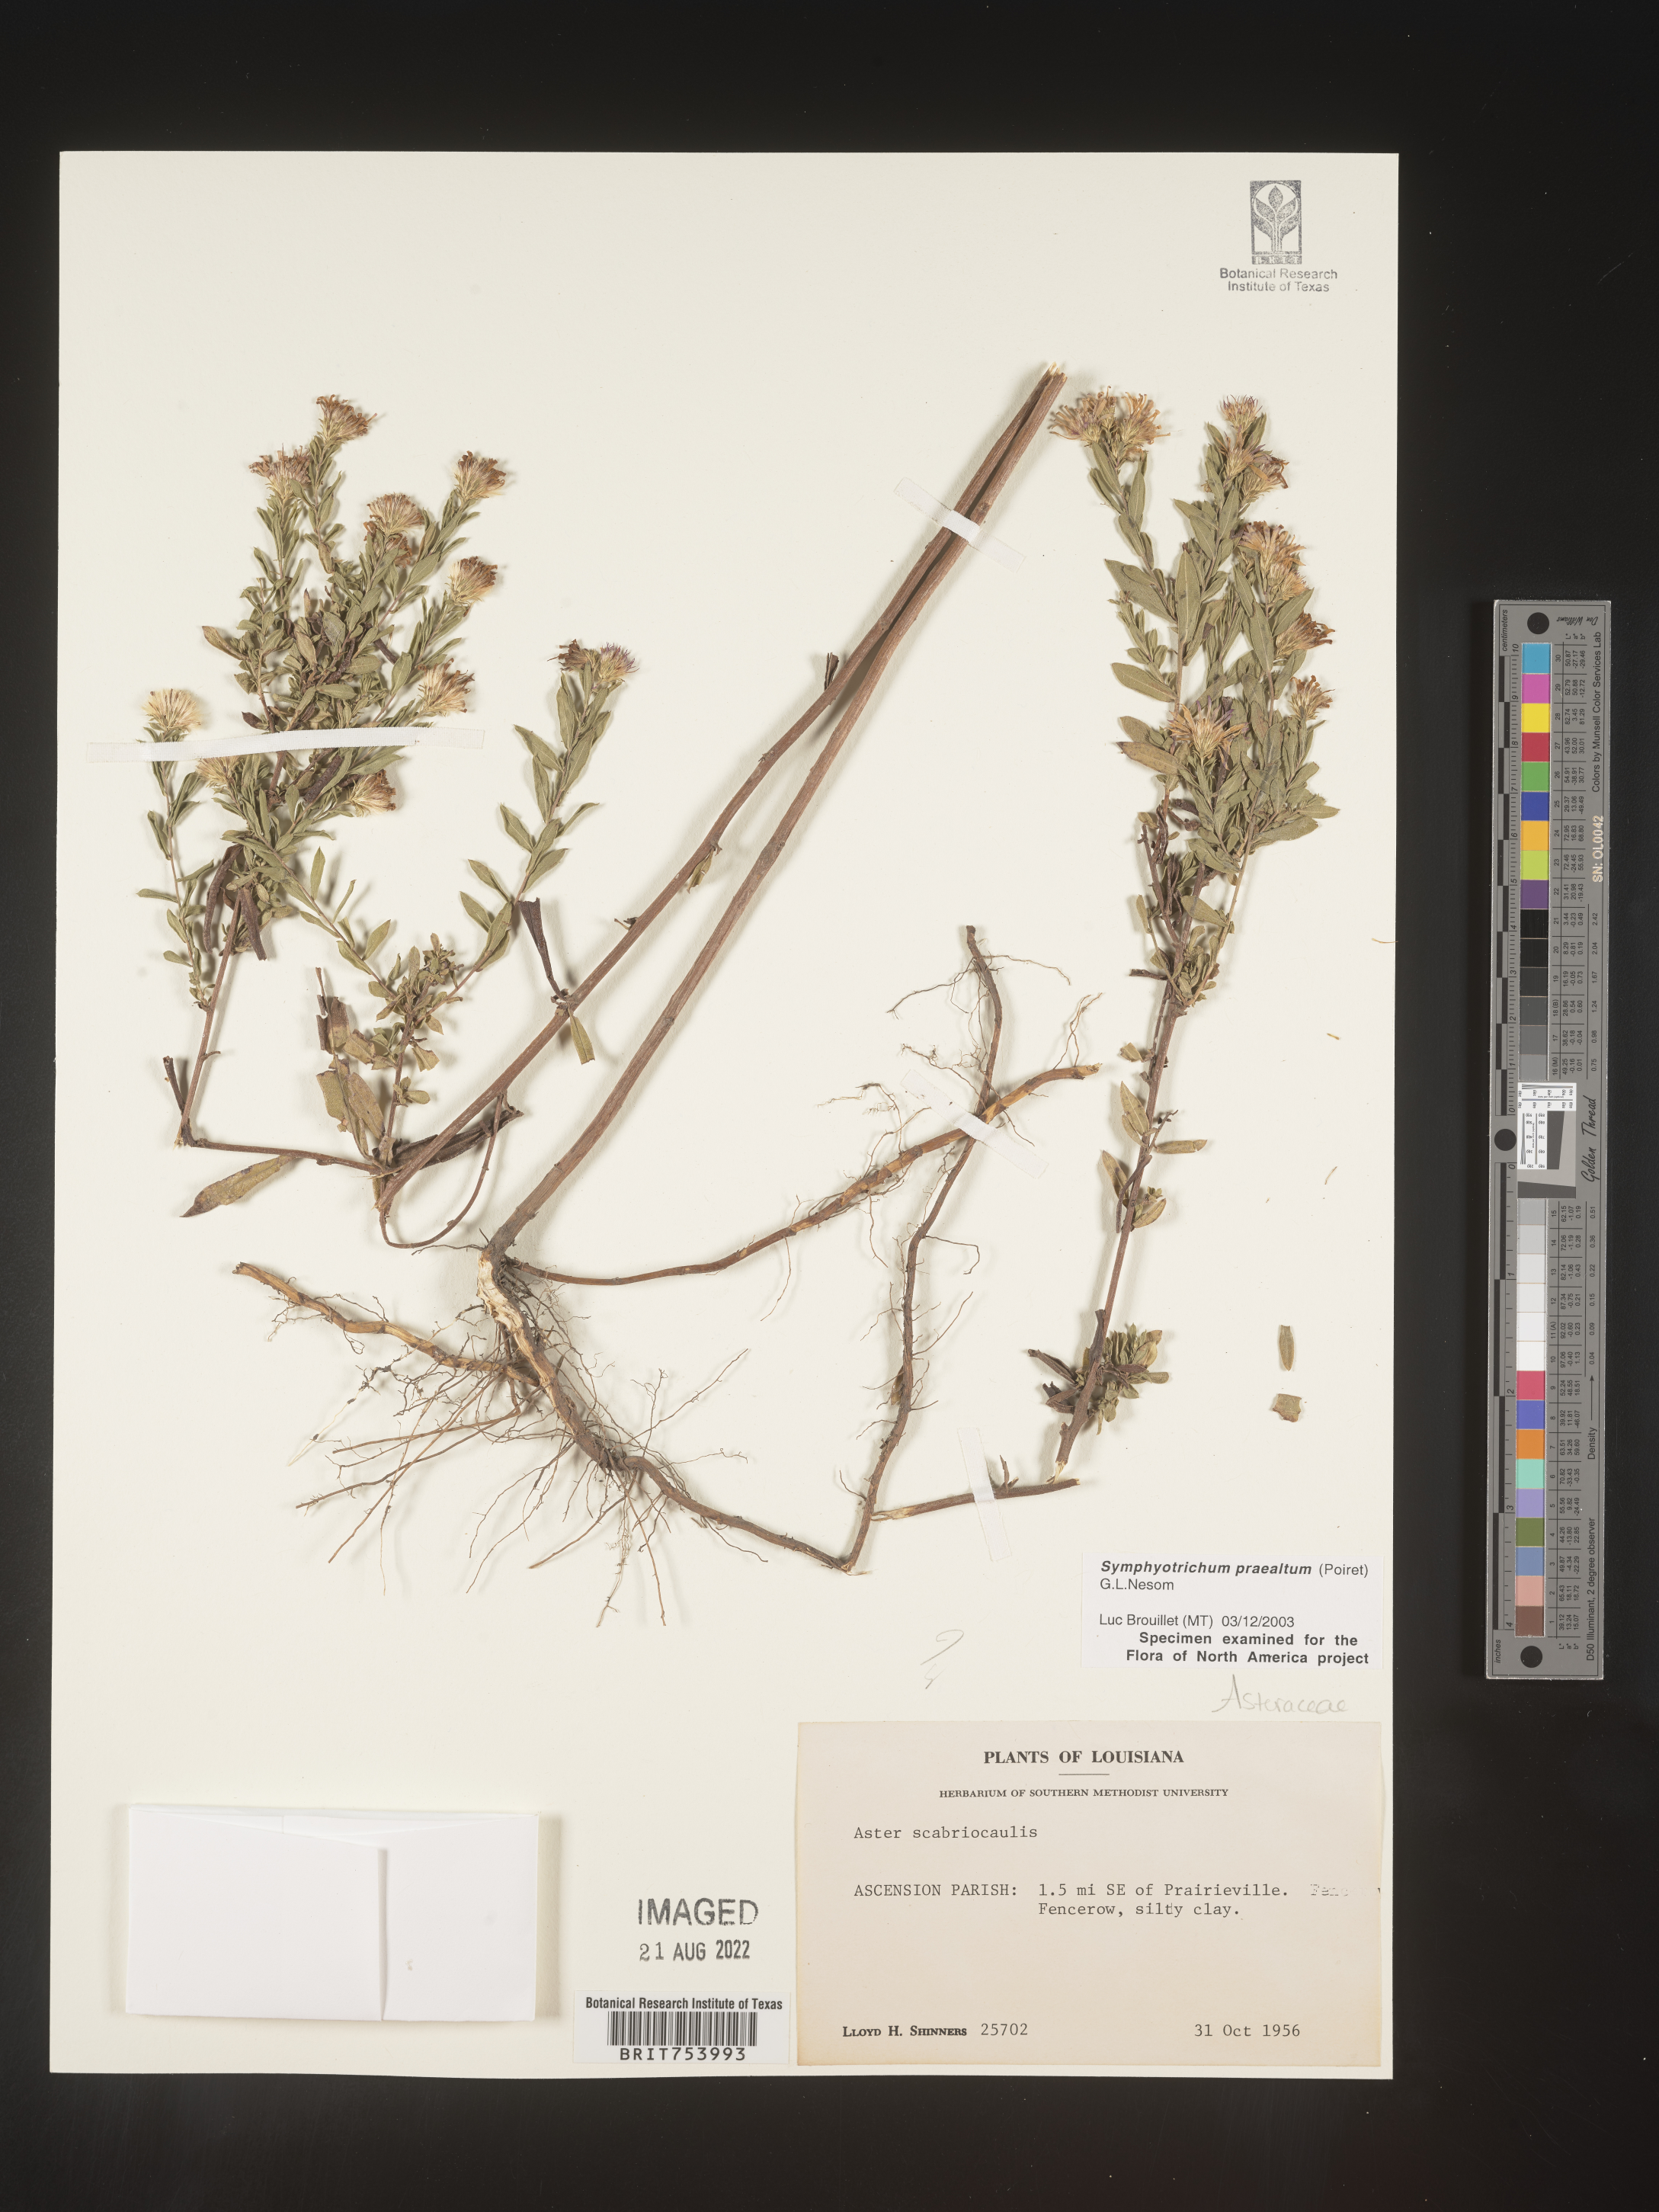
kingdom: Plantae
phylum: Tracheophyta
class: Magnoliopsida
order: Asterales
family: Asteraceae
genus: Symphyotrichum
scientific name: Symphyotrichum praealtum
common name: Willow aster
